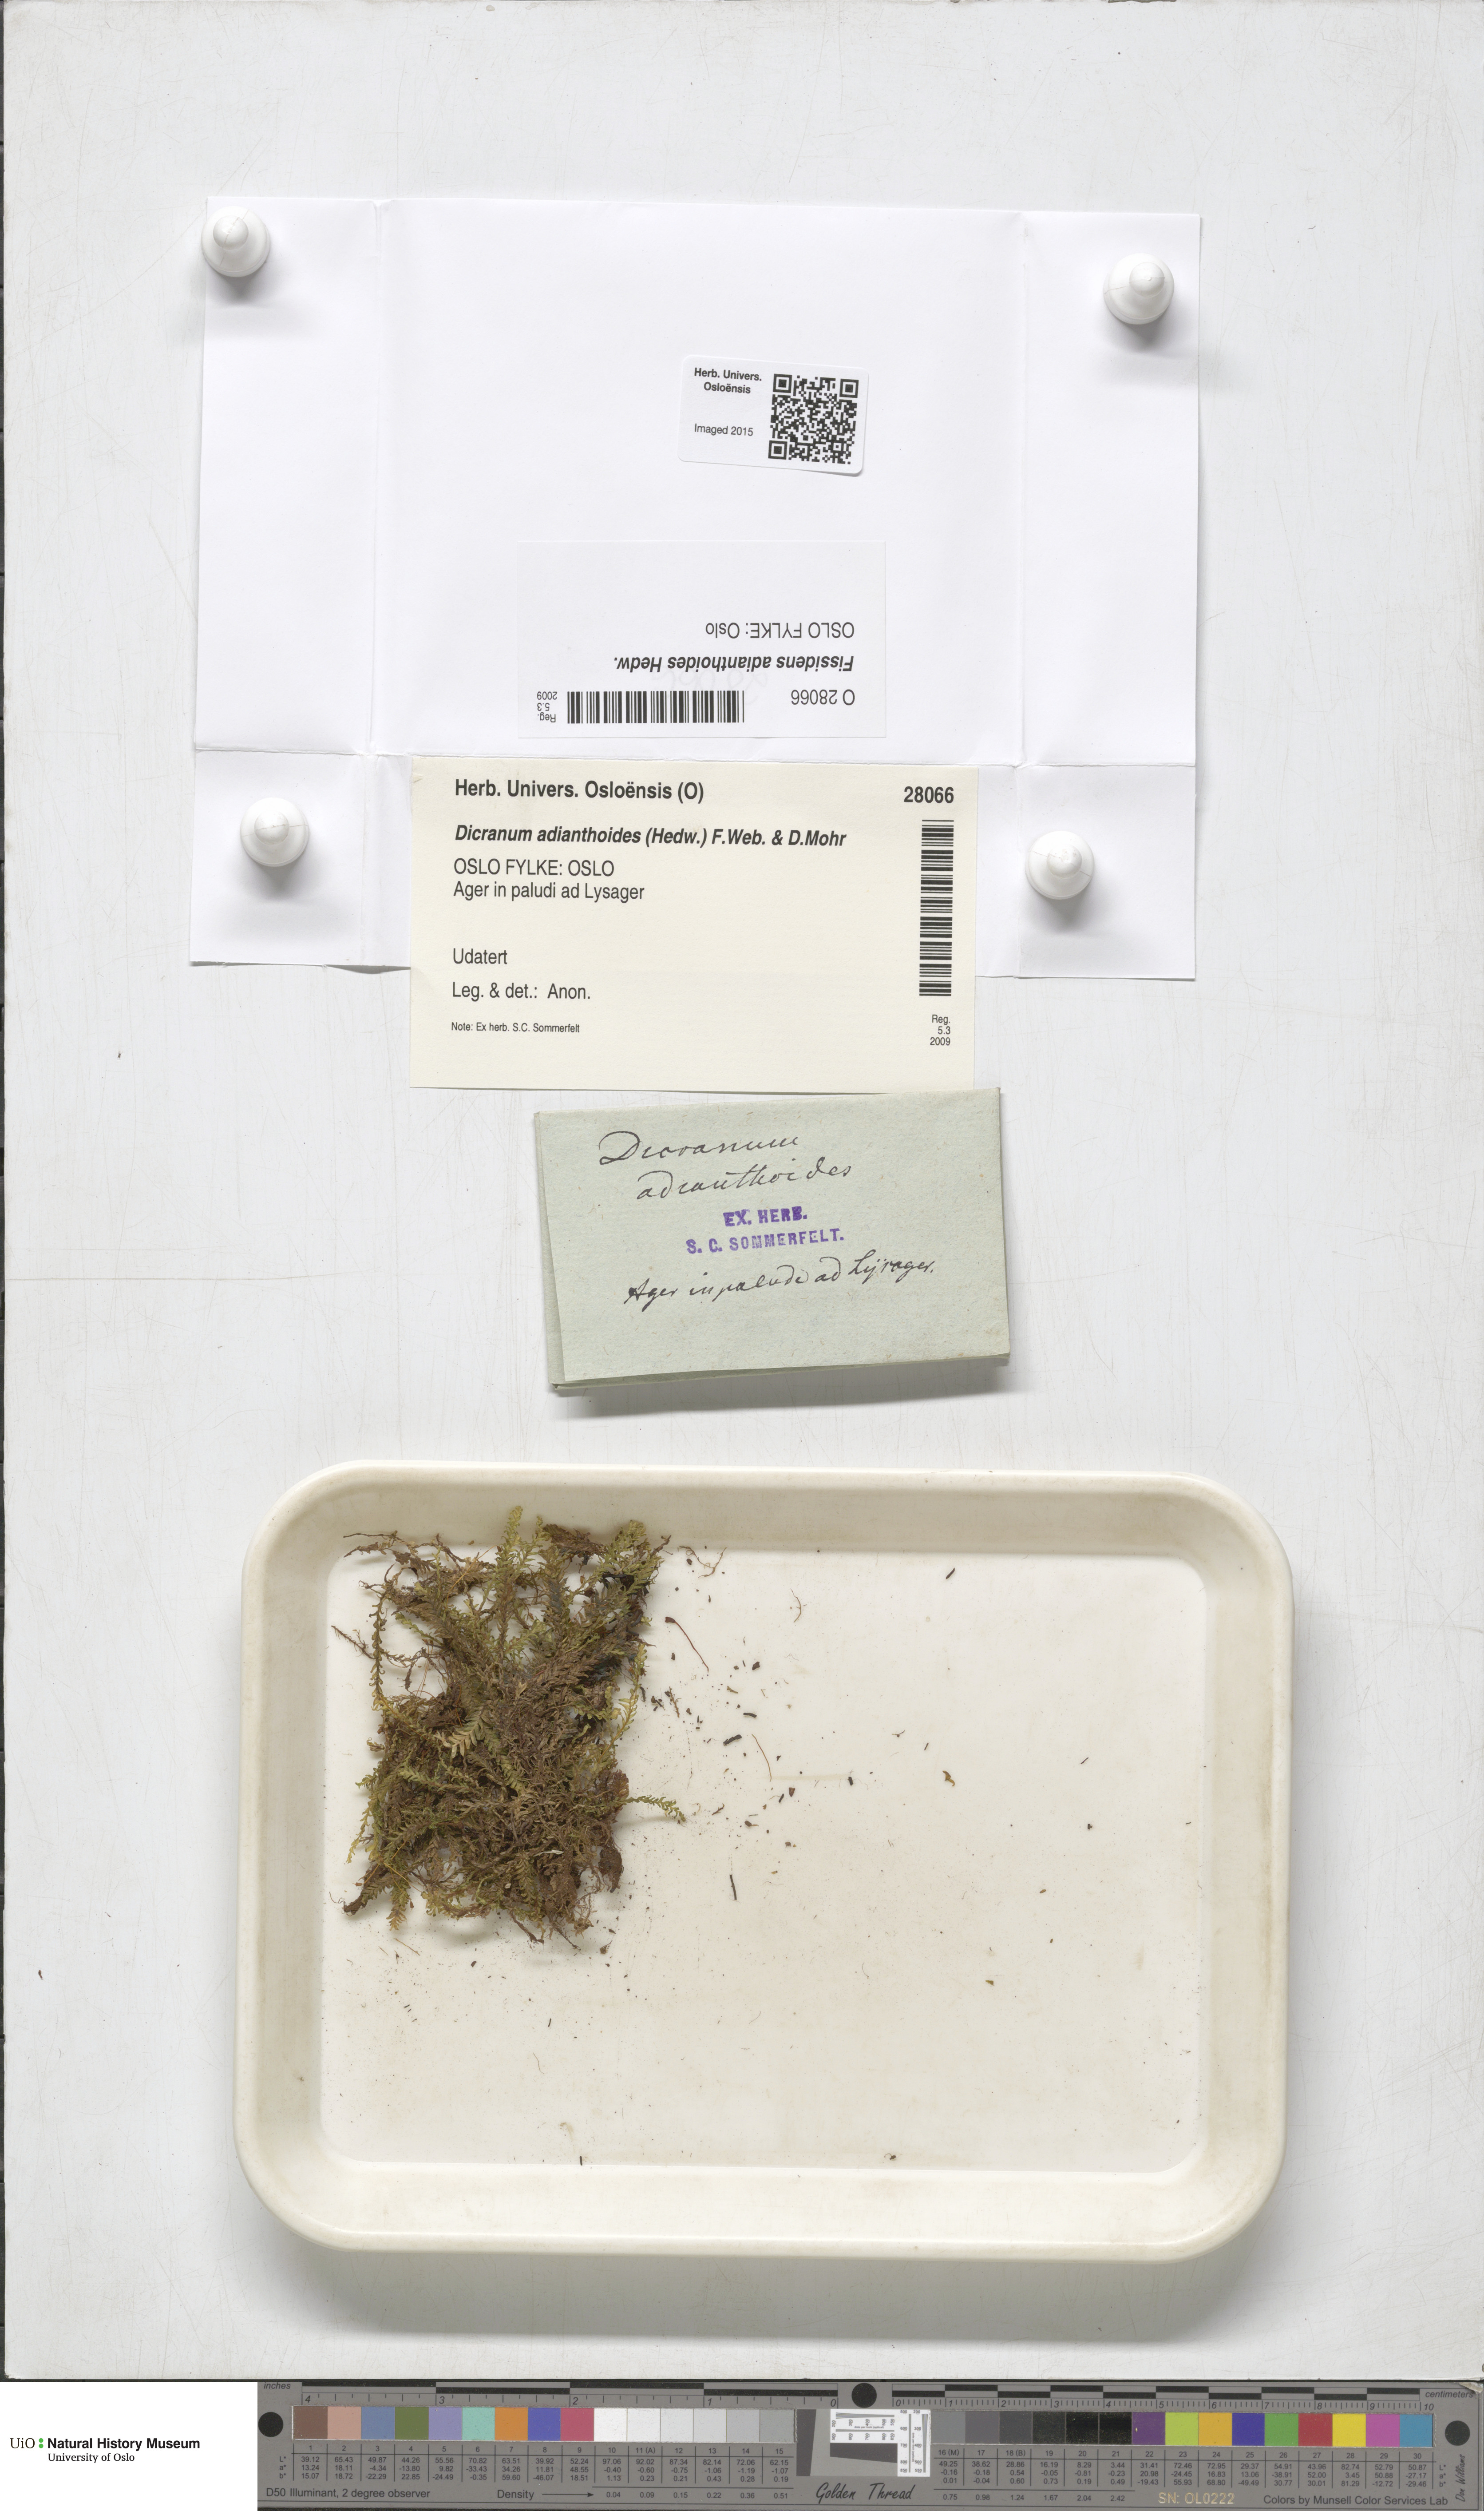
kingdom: Plantae
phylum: Bryophyta
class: Bryopsida
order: Dicranales
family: Fissidentaceae
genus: Fissidens
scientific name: Fissidens adianthoides
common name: Maidenhair pocket moss
